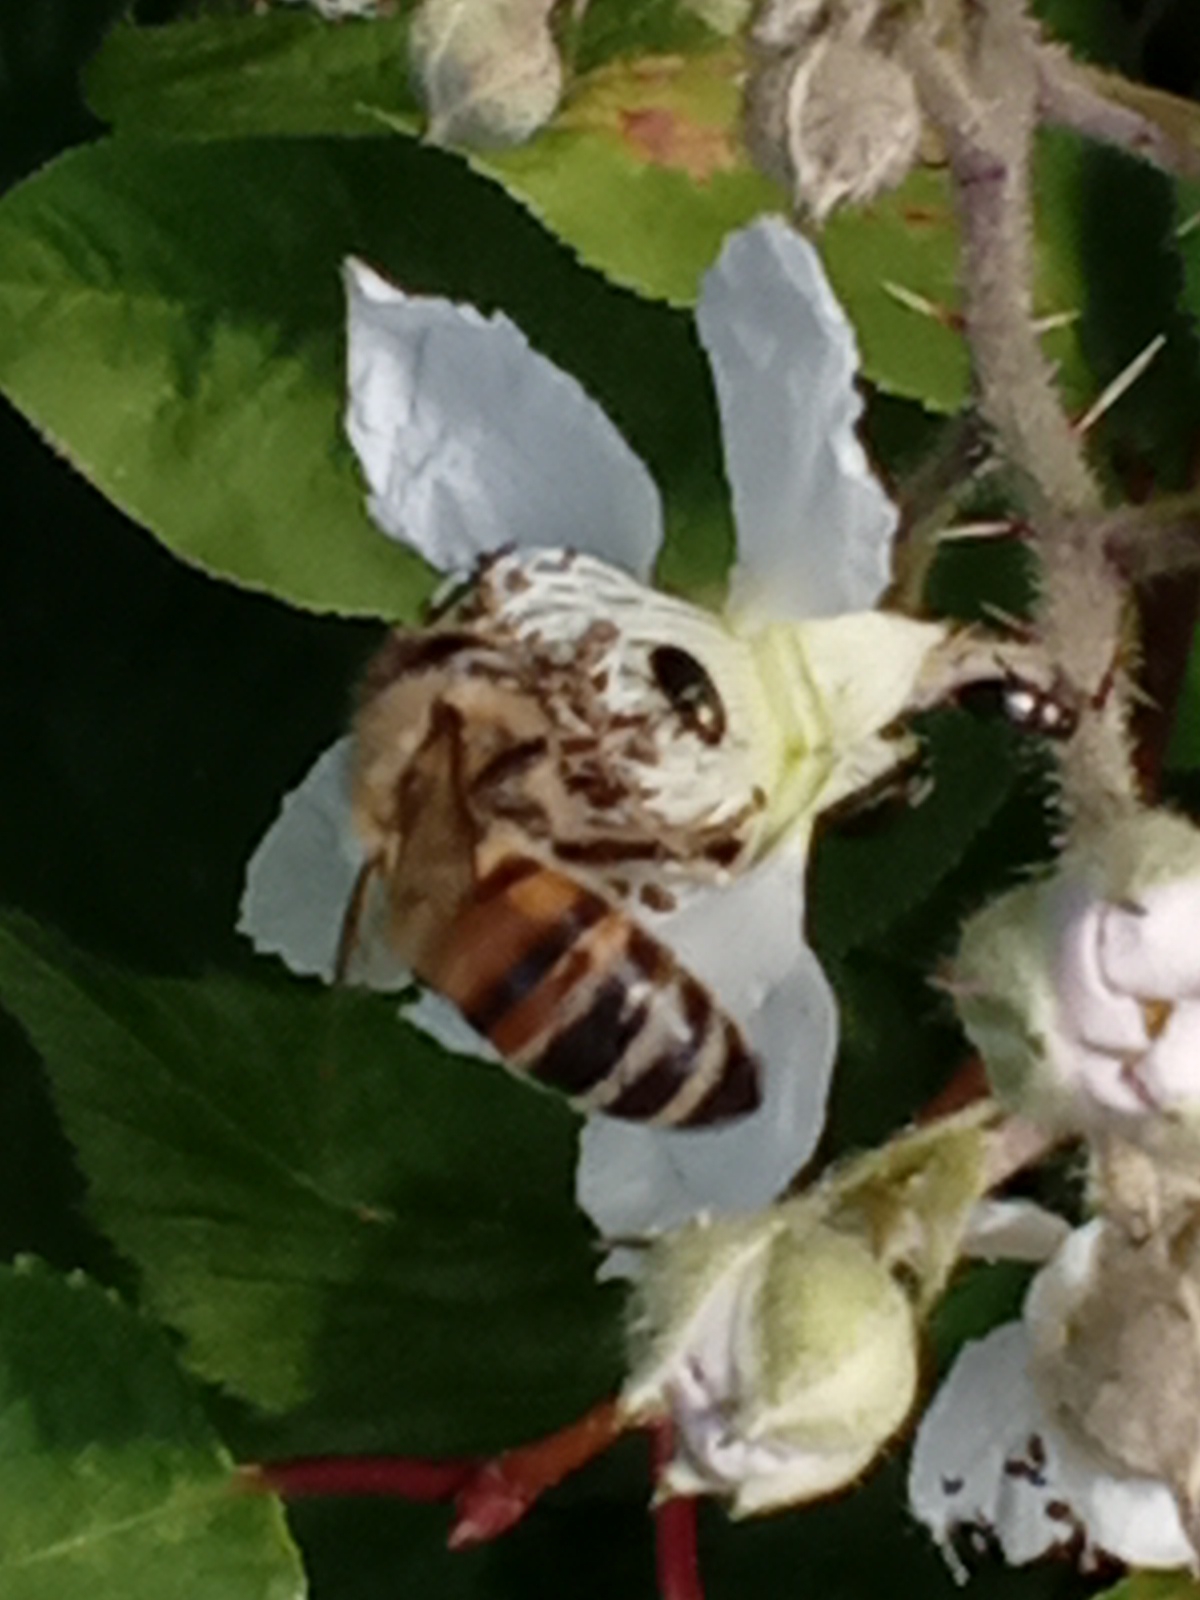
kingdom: Animalia
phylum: Arthropoda
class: Insecta
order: Hymenoptera
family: Apidae
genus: Apis
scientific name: Apis mellifera
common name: Honningbi
